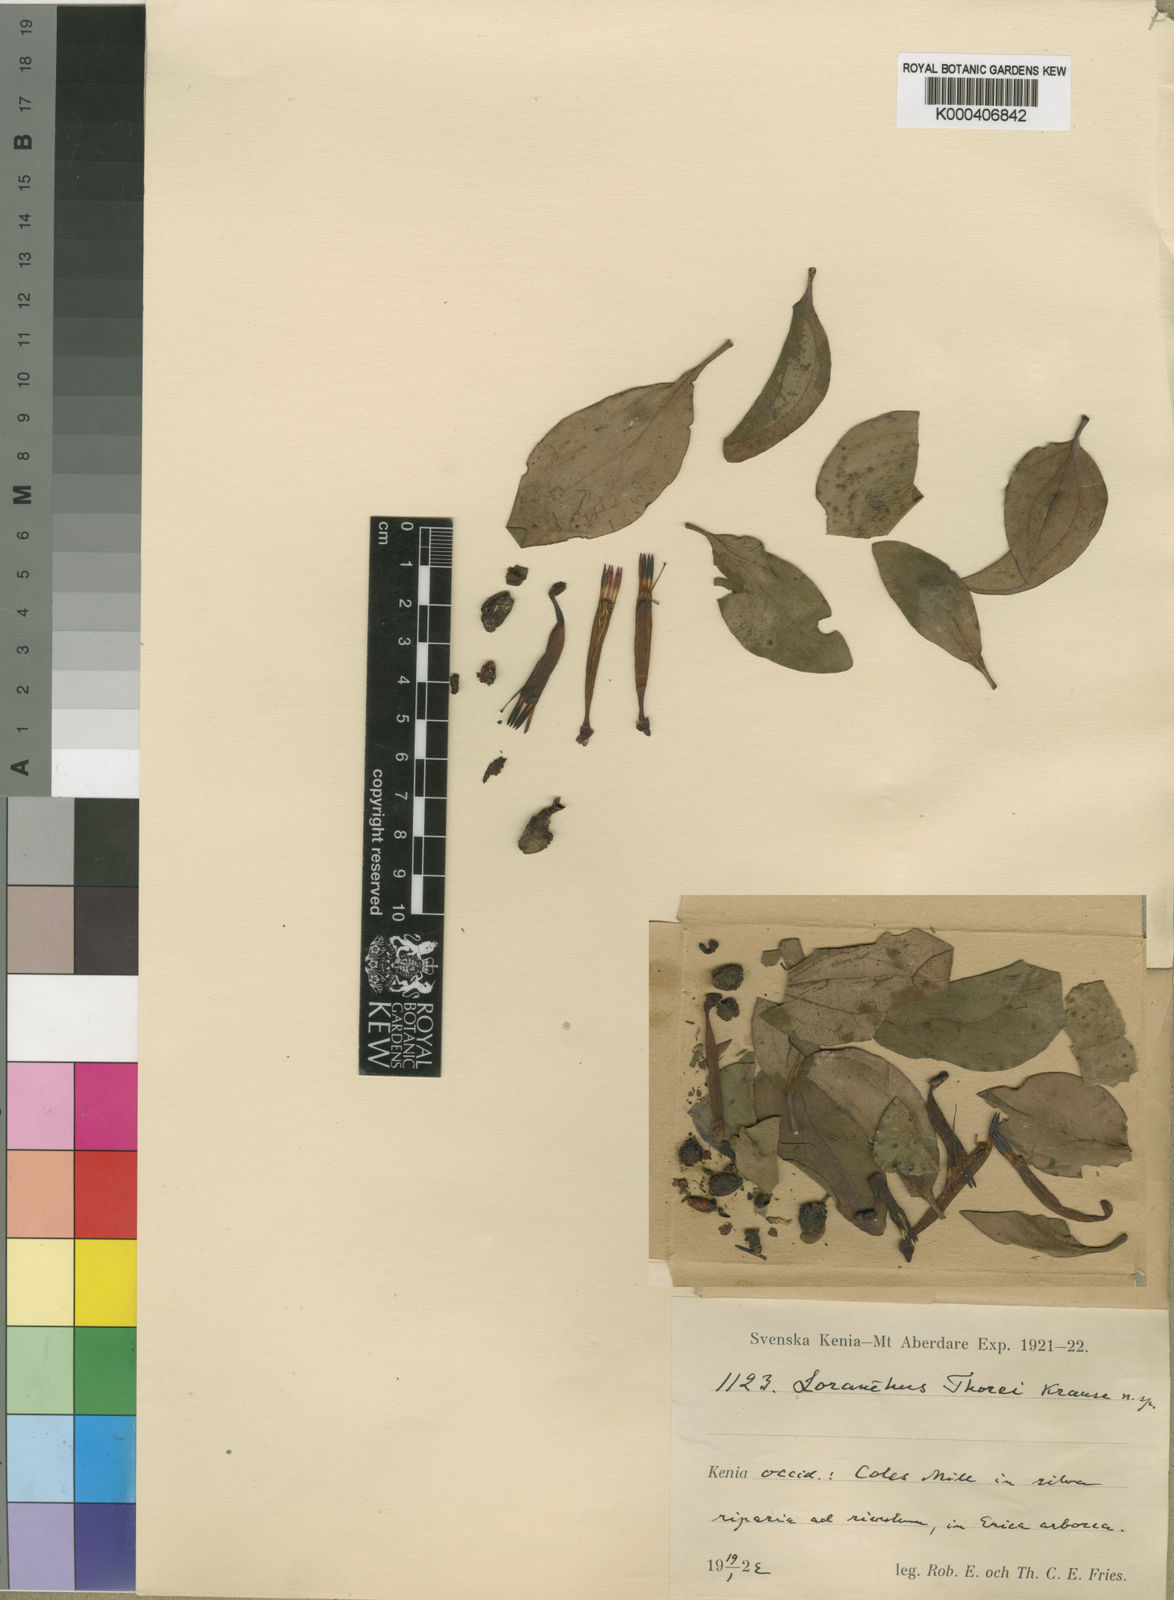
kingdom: Plantae
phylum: Tracheophyta
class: Magnoliopsida
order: Santalales
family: Loranthaceae
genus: Agelanthus
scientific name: Agelanthus sansibarensis
